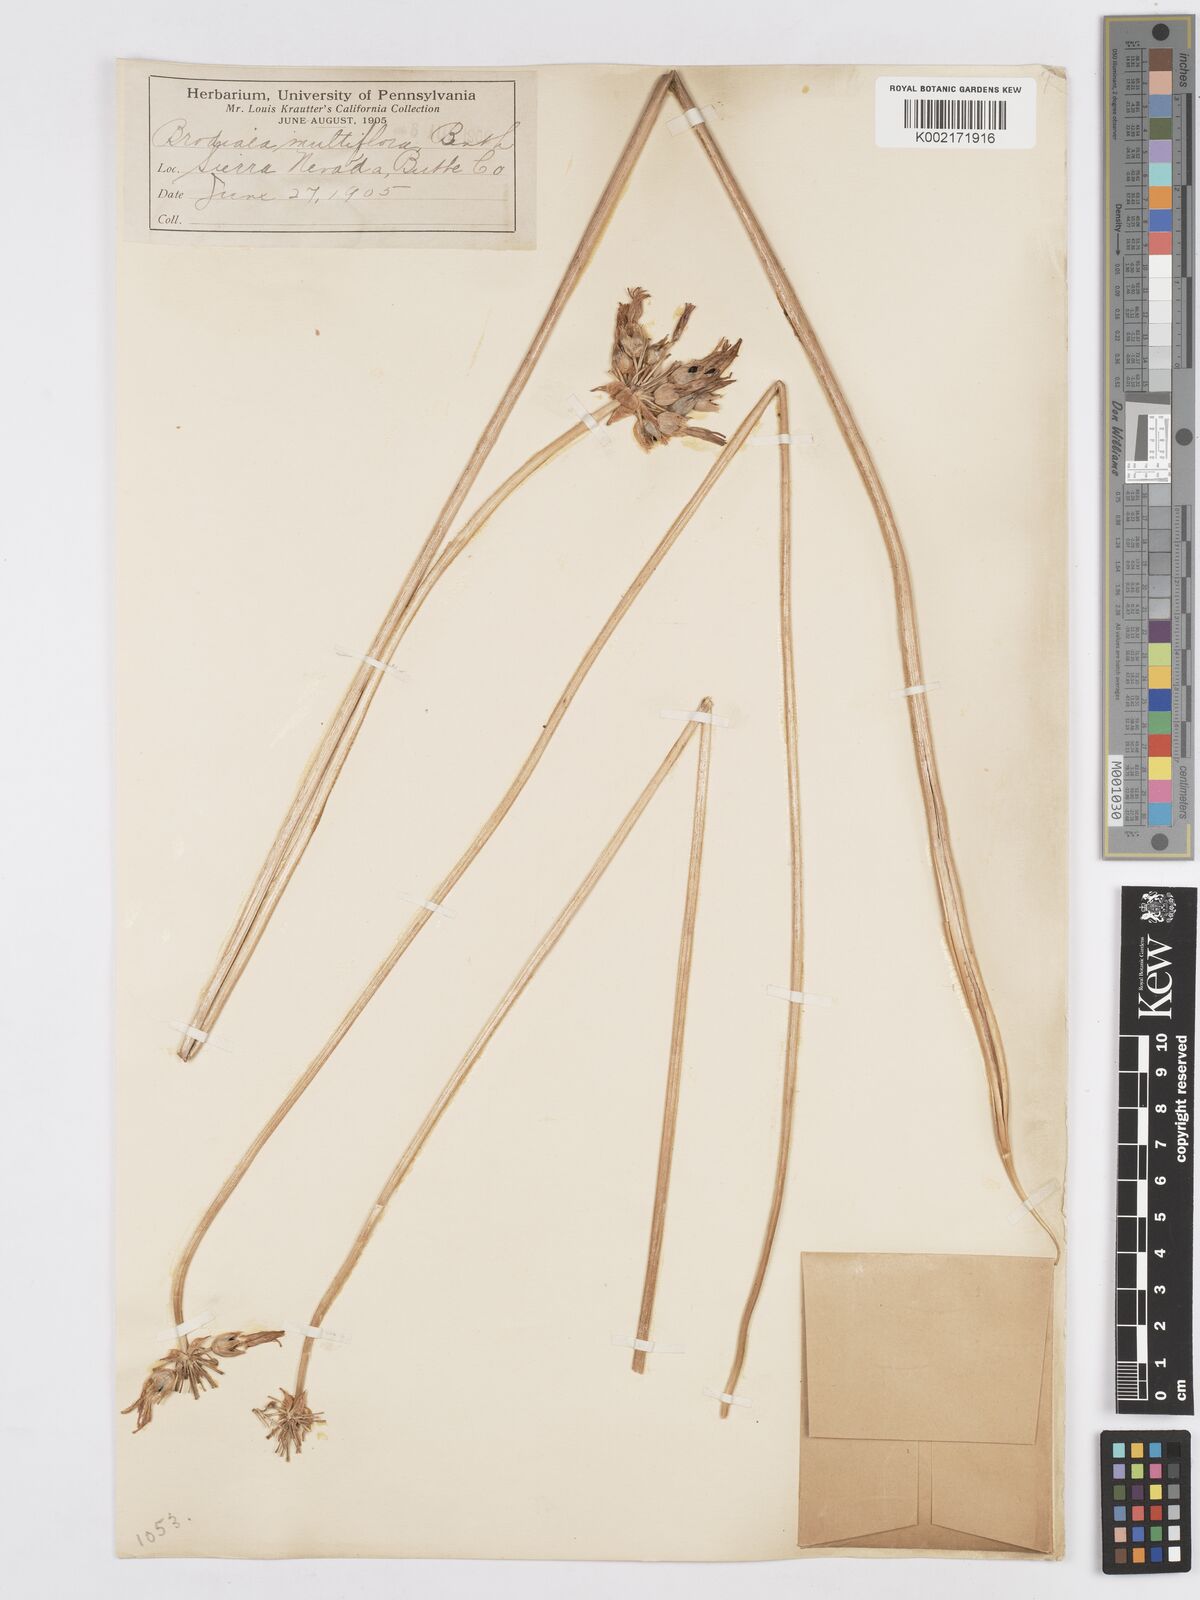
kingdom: Plantae
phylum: Tracheophyta
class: Liliopsida
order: Asparagales
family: Asparagaceae
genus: Dichelostemma
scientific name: Dichelostemma multiflorum
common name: Round-tooth ookow
